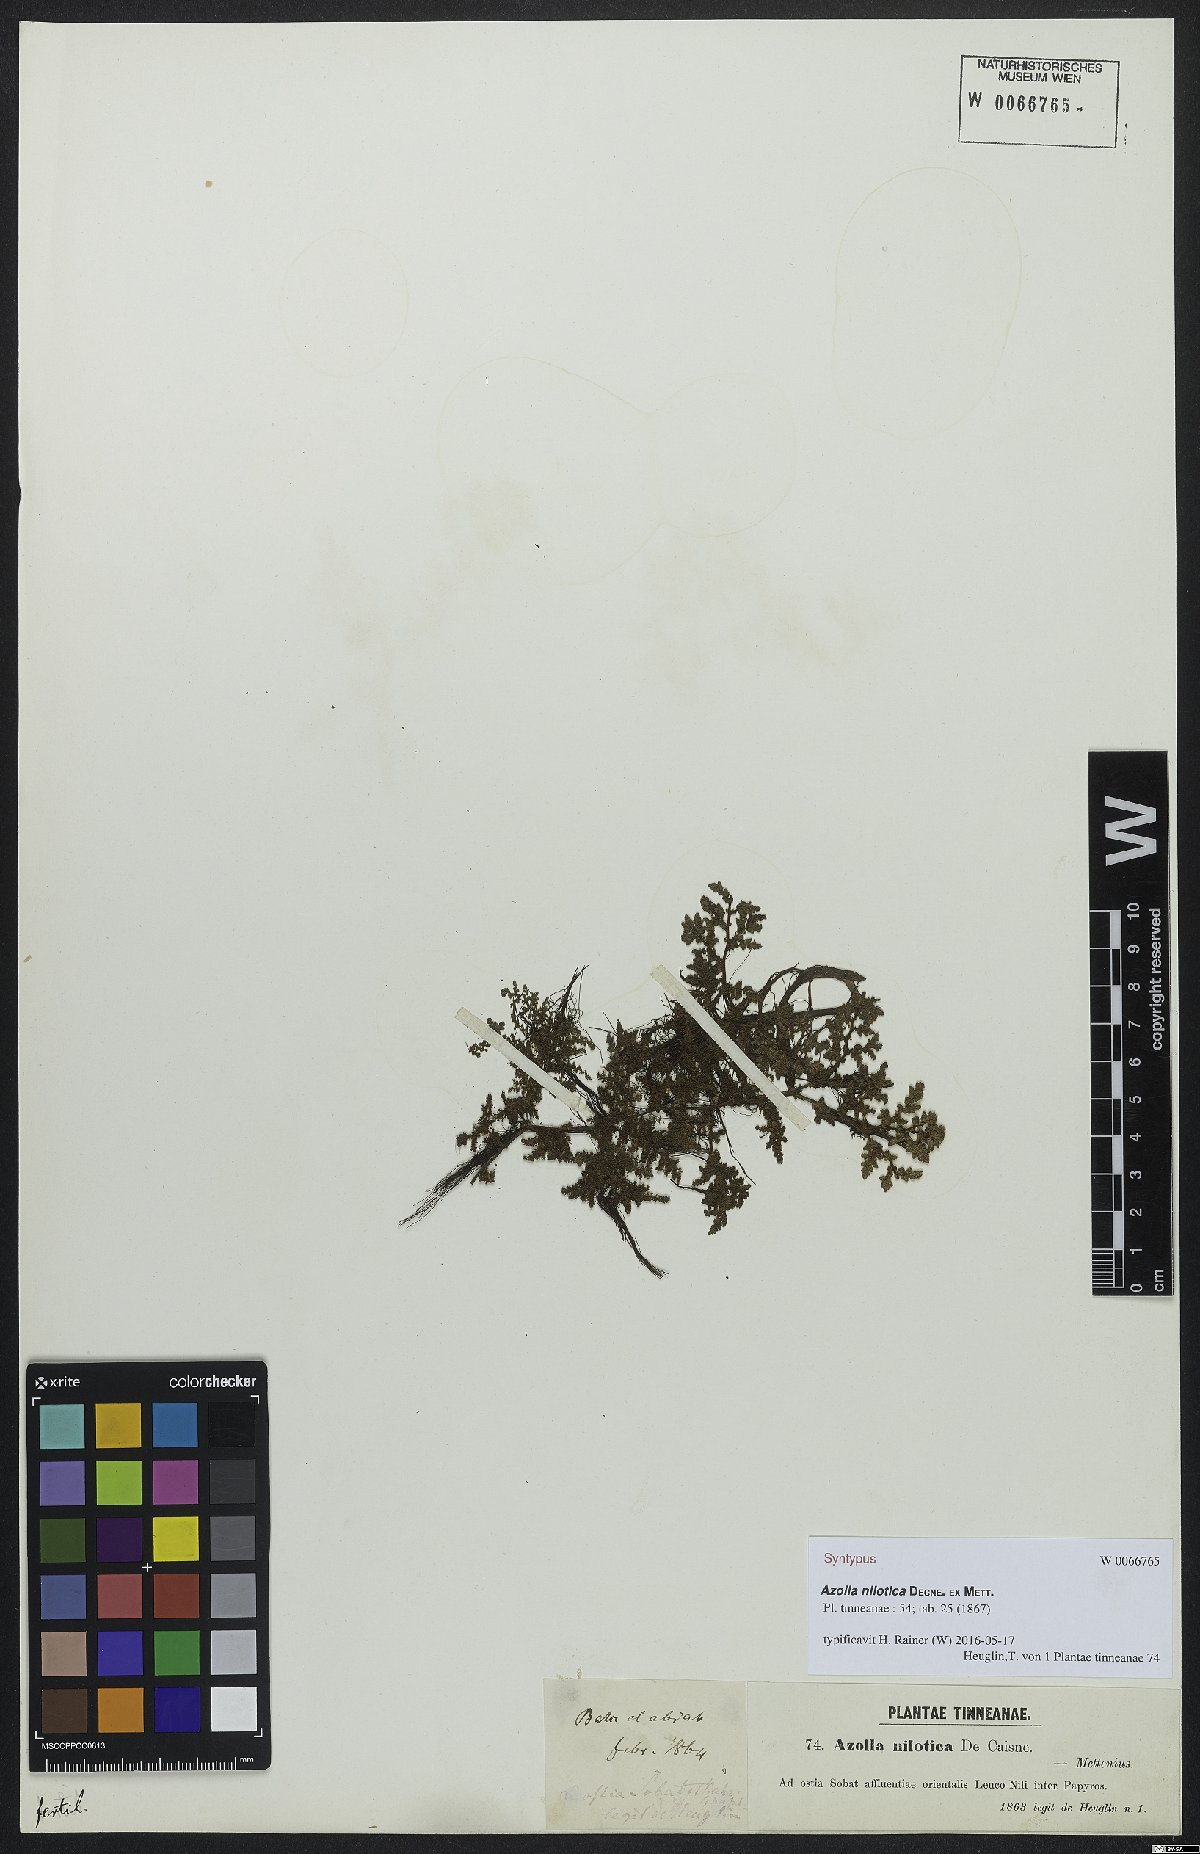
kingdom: Plantae
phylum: Tracheophyta
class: Polypodiopsida
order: Salviniales
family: Salviniaceae
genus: Azolla
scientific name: Azolla nilotica
